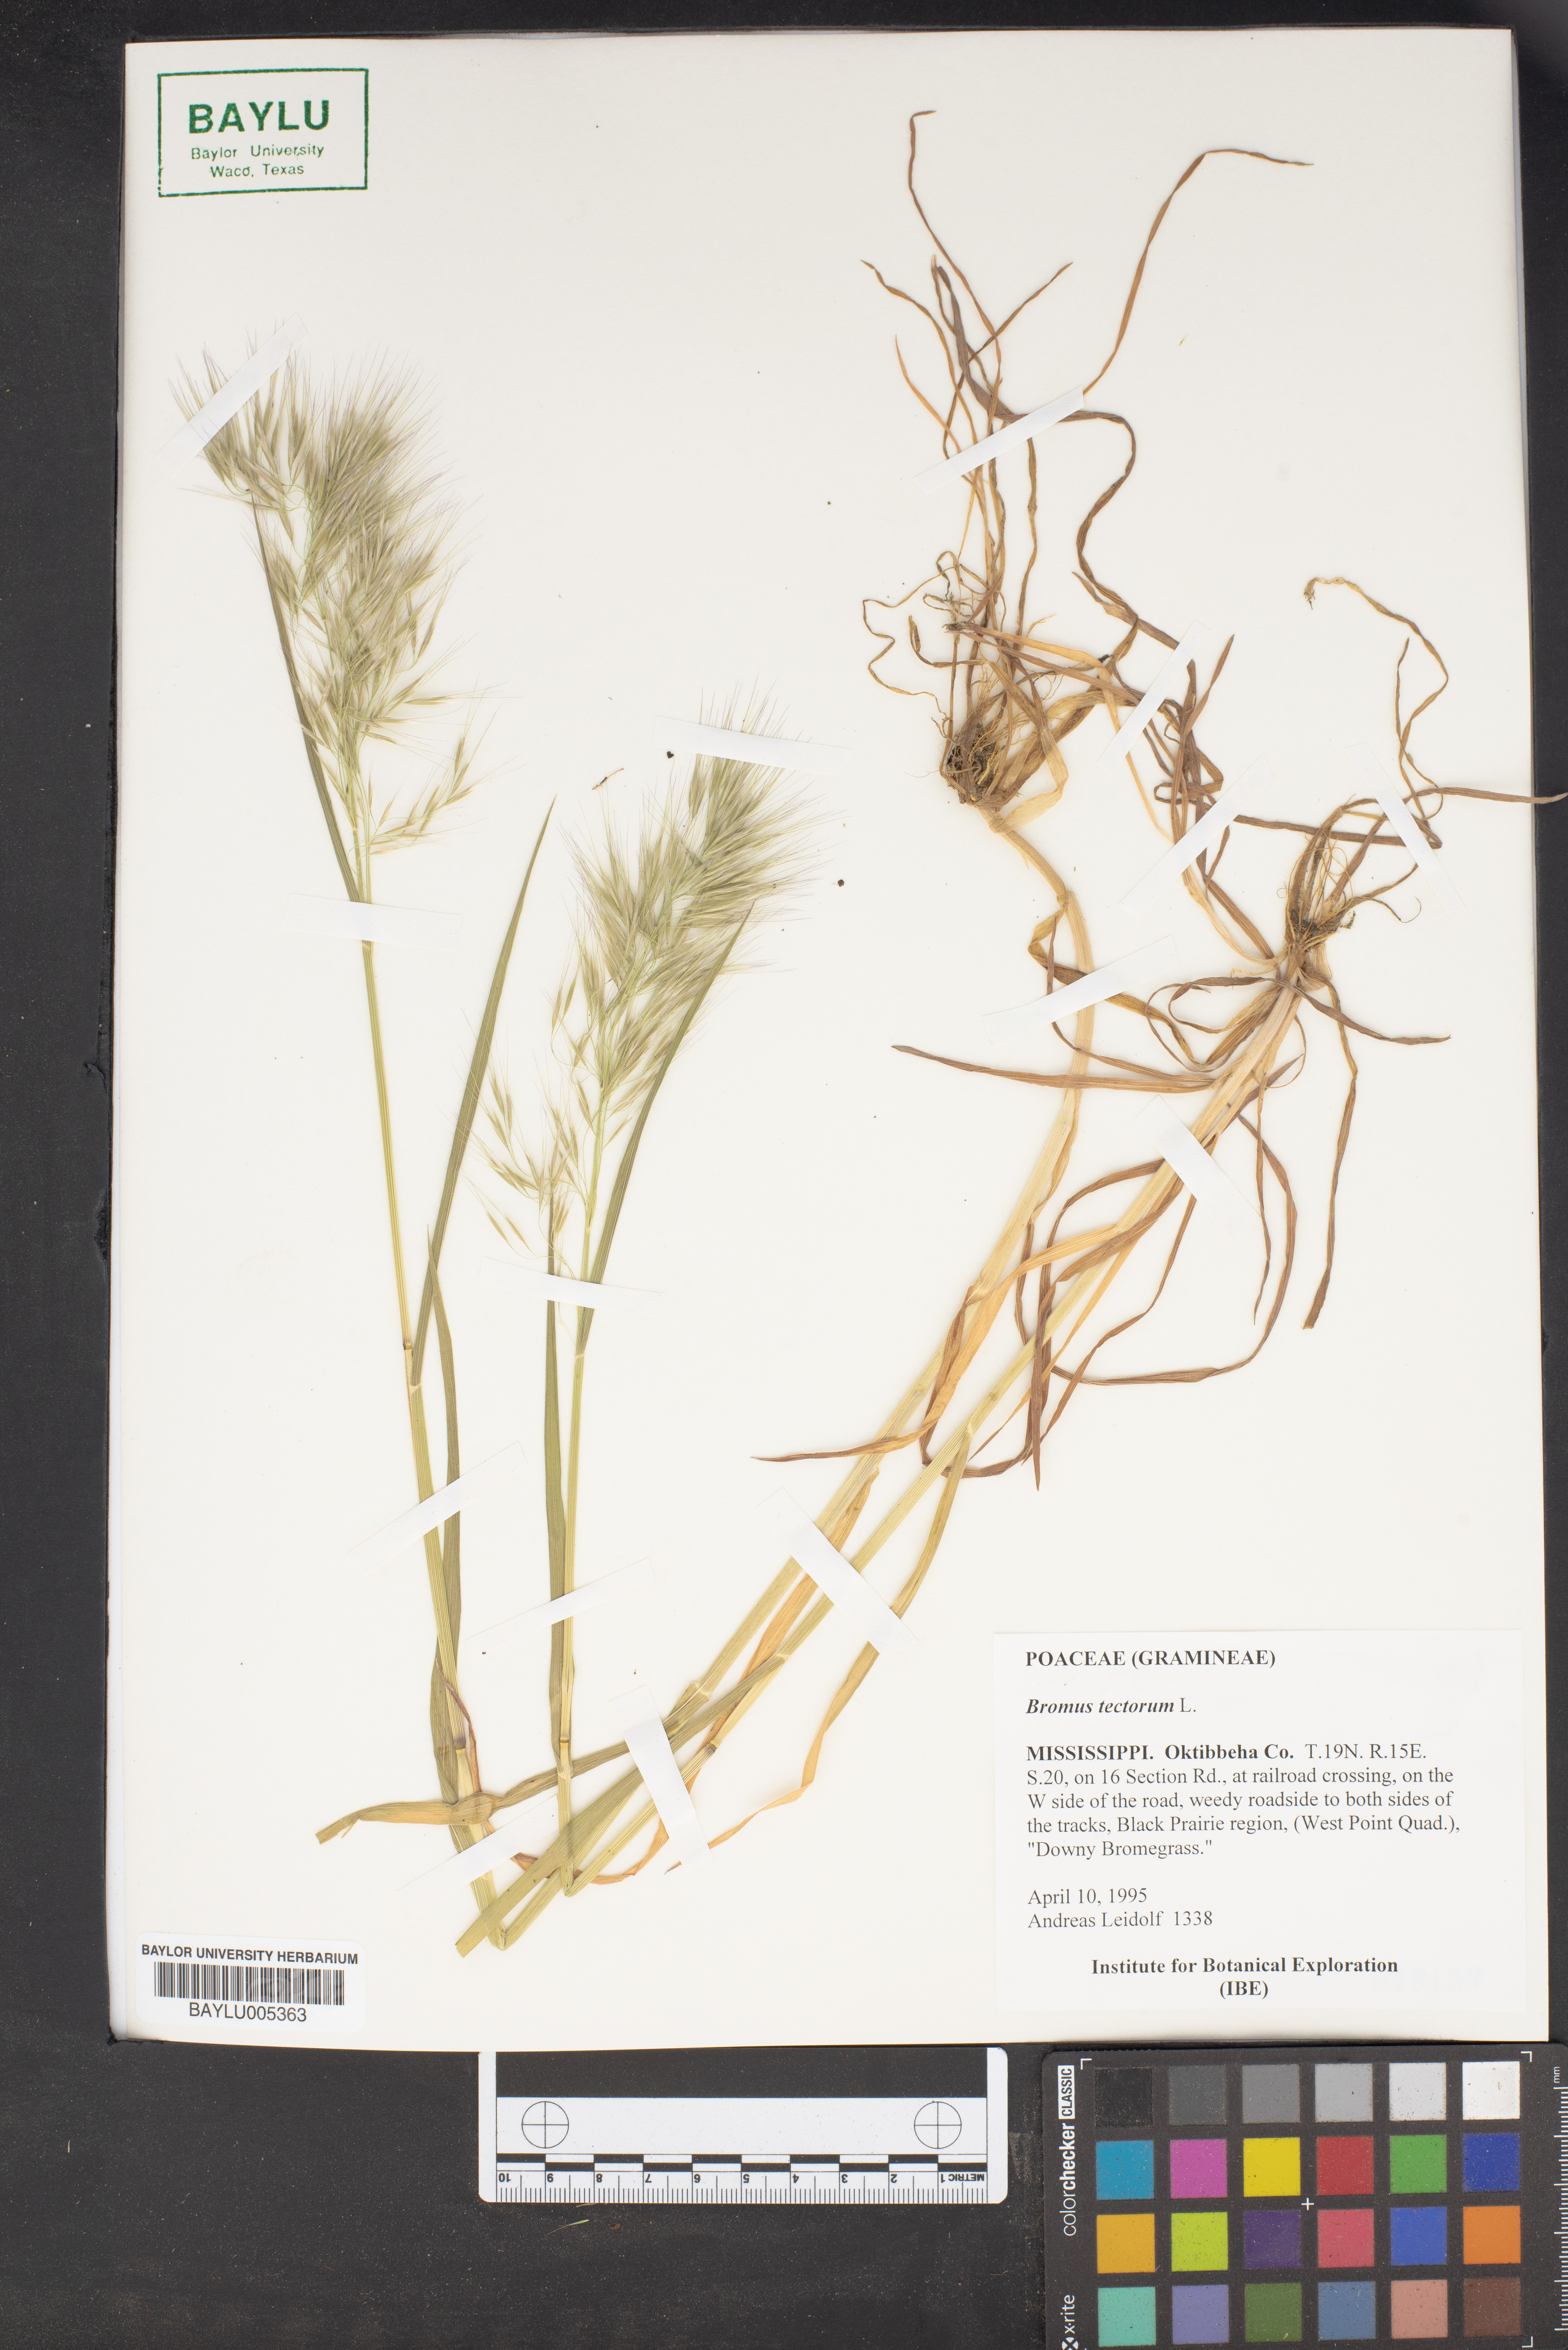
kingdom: Plantae
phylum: Tracheophyta
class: Liliopsida
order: Poales
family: Poaceae
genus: Bromus
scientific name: Bromus tectorum
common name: Cheatgrass
